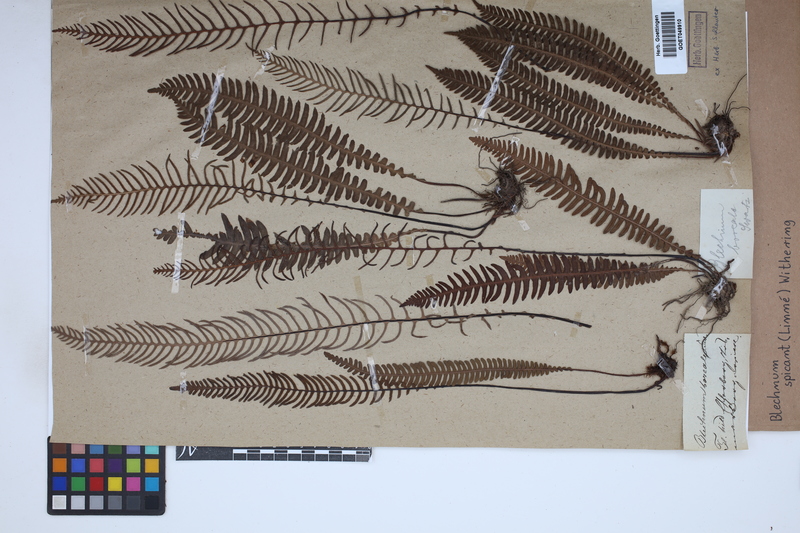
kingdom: Plantae
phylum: Tracheophyta
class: Polypodiopsida
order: Polypodiales
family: Blechnaceae
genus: Struthiopteris
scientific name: Struthiopteris spicant
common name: Deer fern
